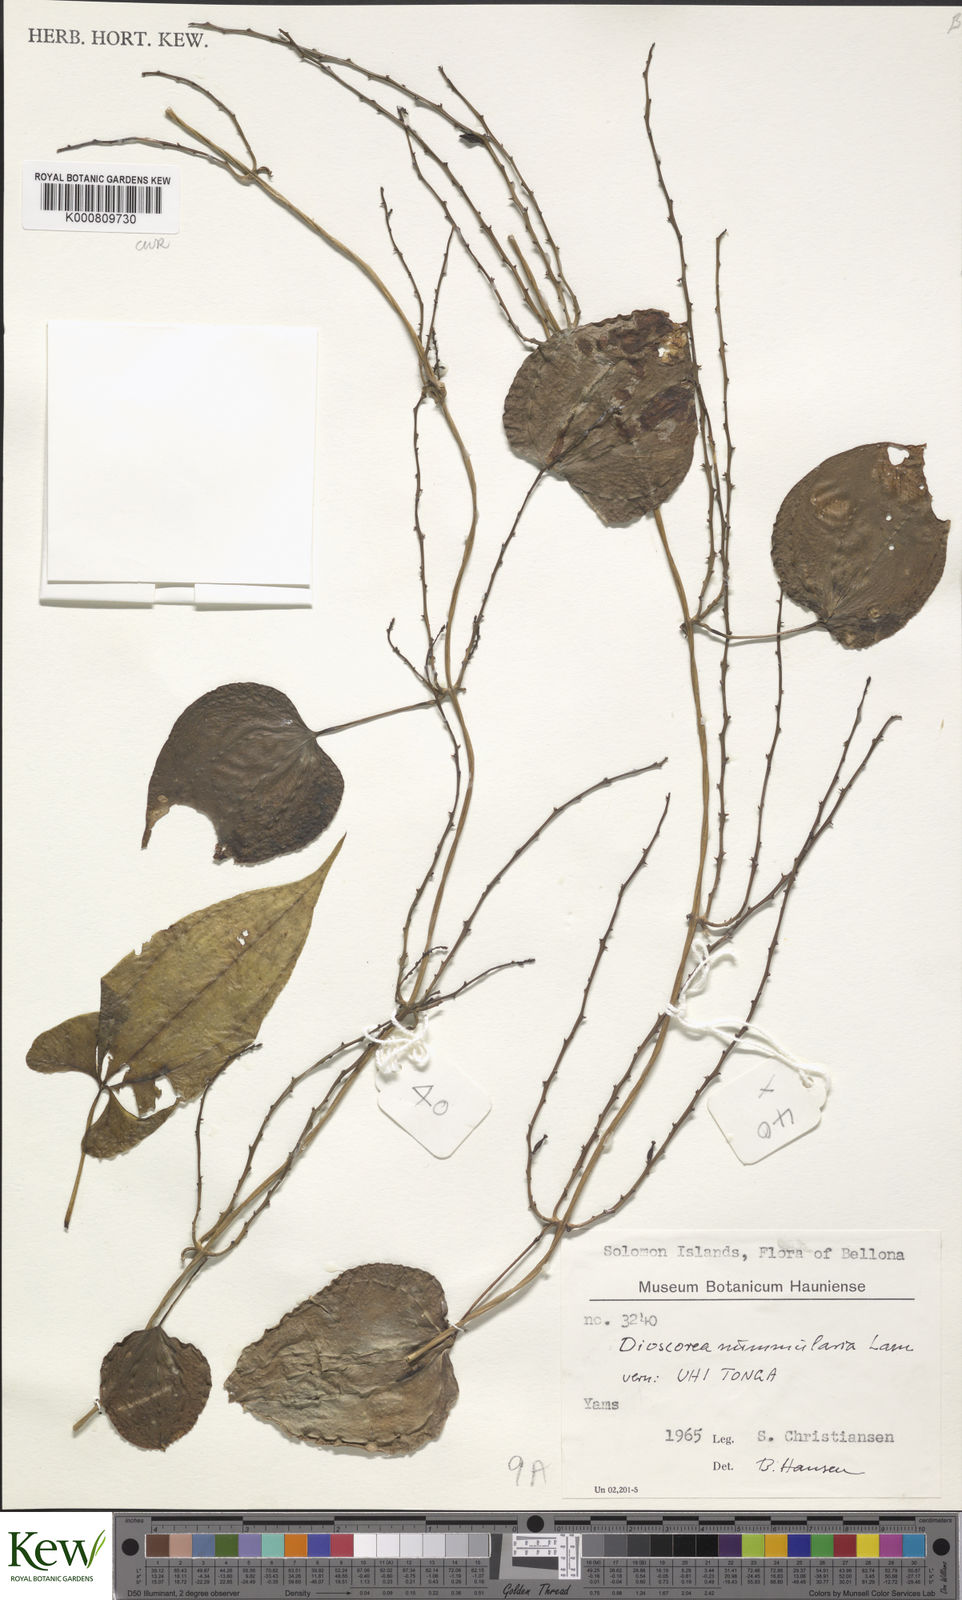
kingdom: Plantae
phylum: Tracheophyta
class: Liliopsida
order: Dioscoreales
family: Dioscoreaceae
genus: Dioscorea
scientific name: Dioscorea nummularia
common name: Pacific yam
